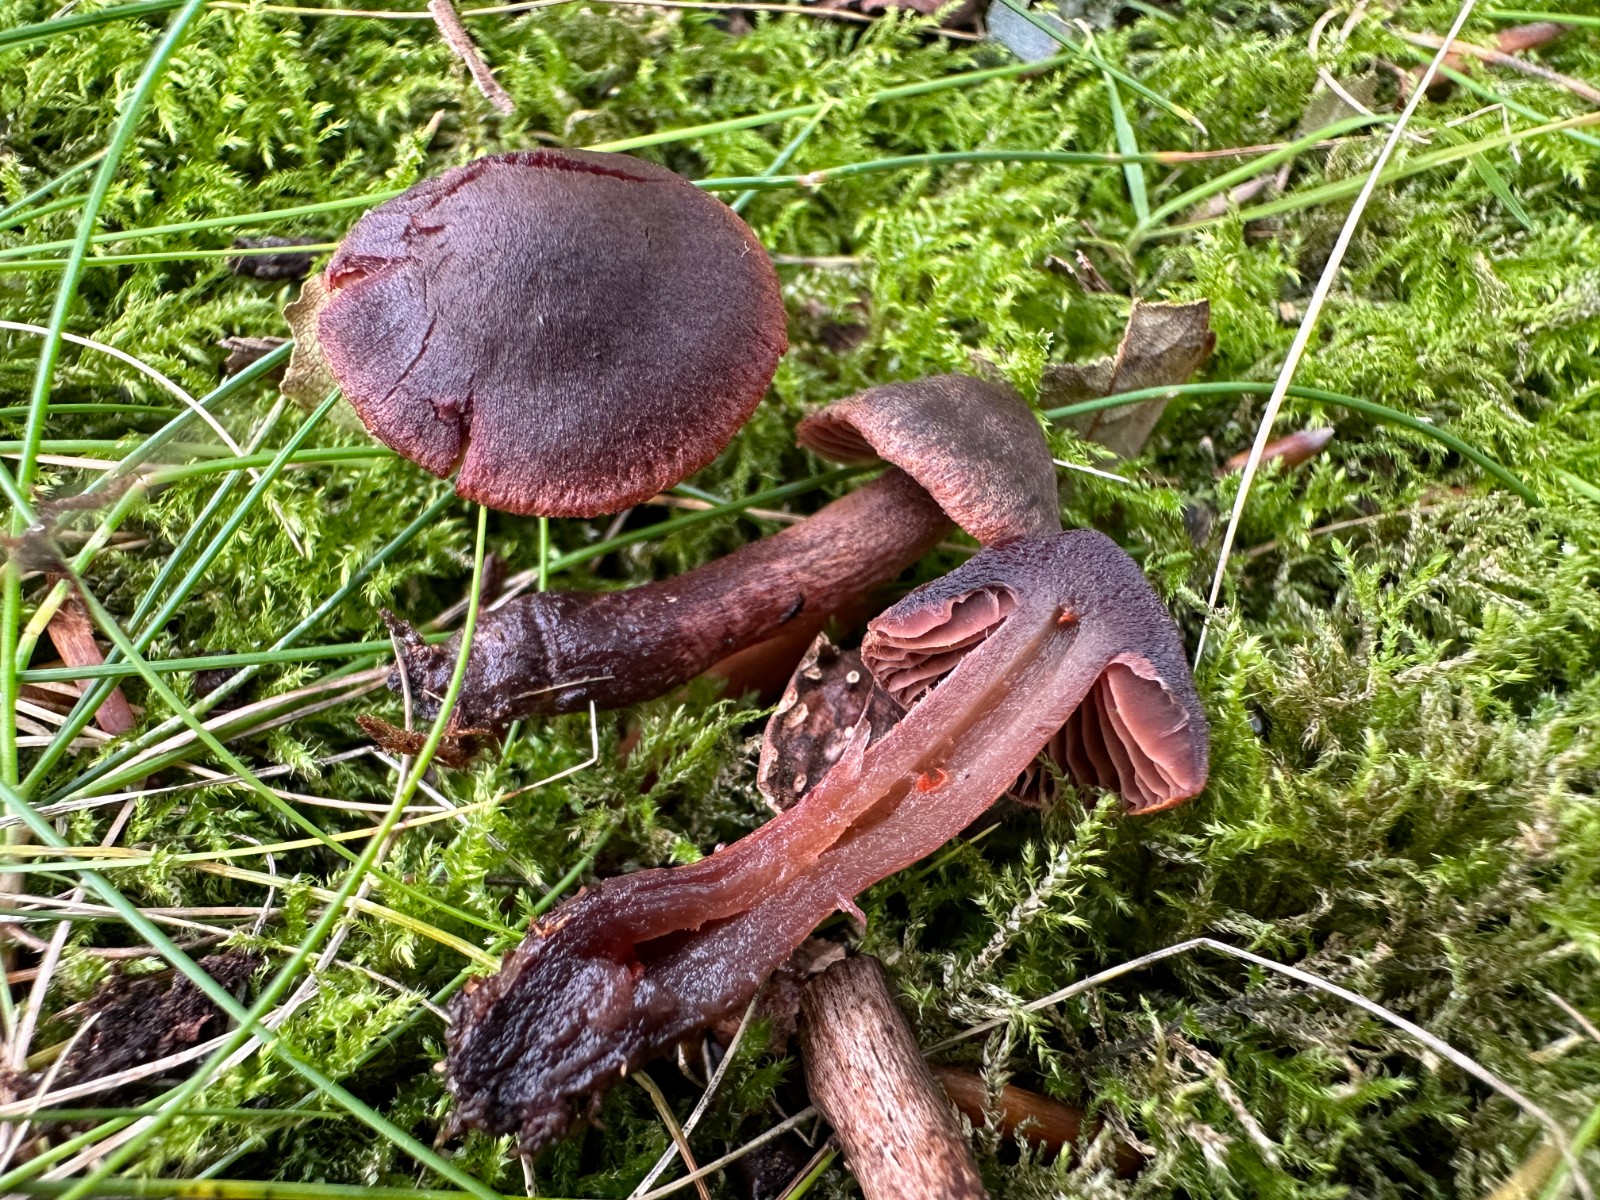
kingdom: Fungi
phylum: Basidiomycota
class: Agaricomycetes
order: Agaricales
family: Cortinariaceae
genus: Cortinarius
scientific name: Cortinarius anthracinus
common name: purpursort slørhat
